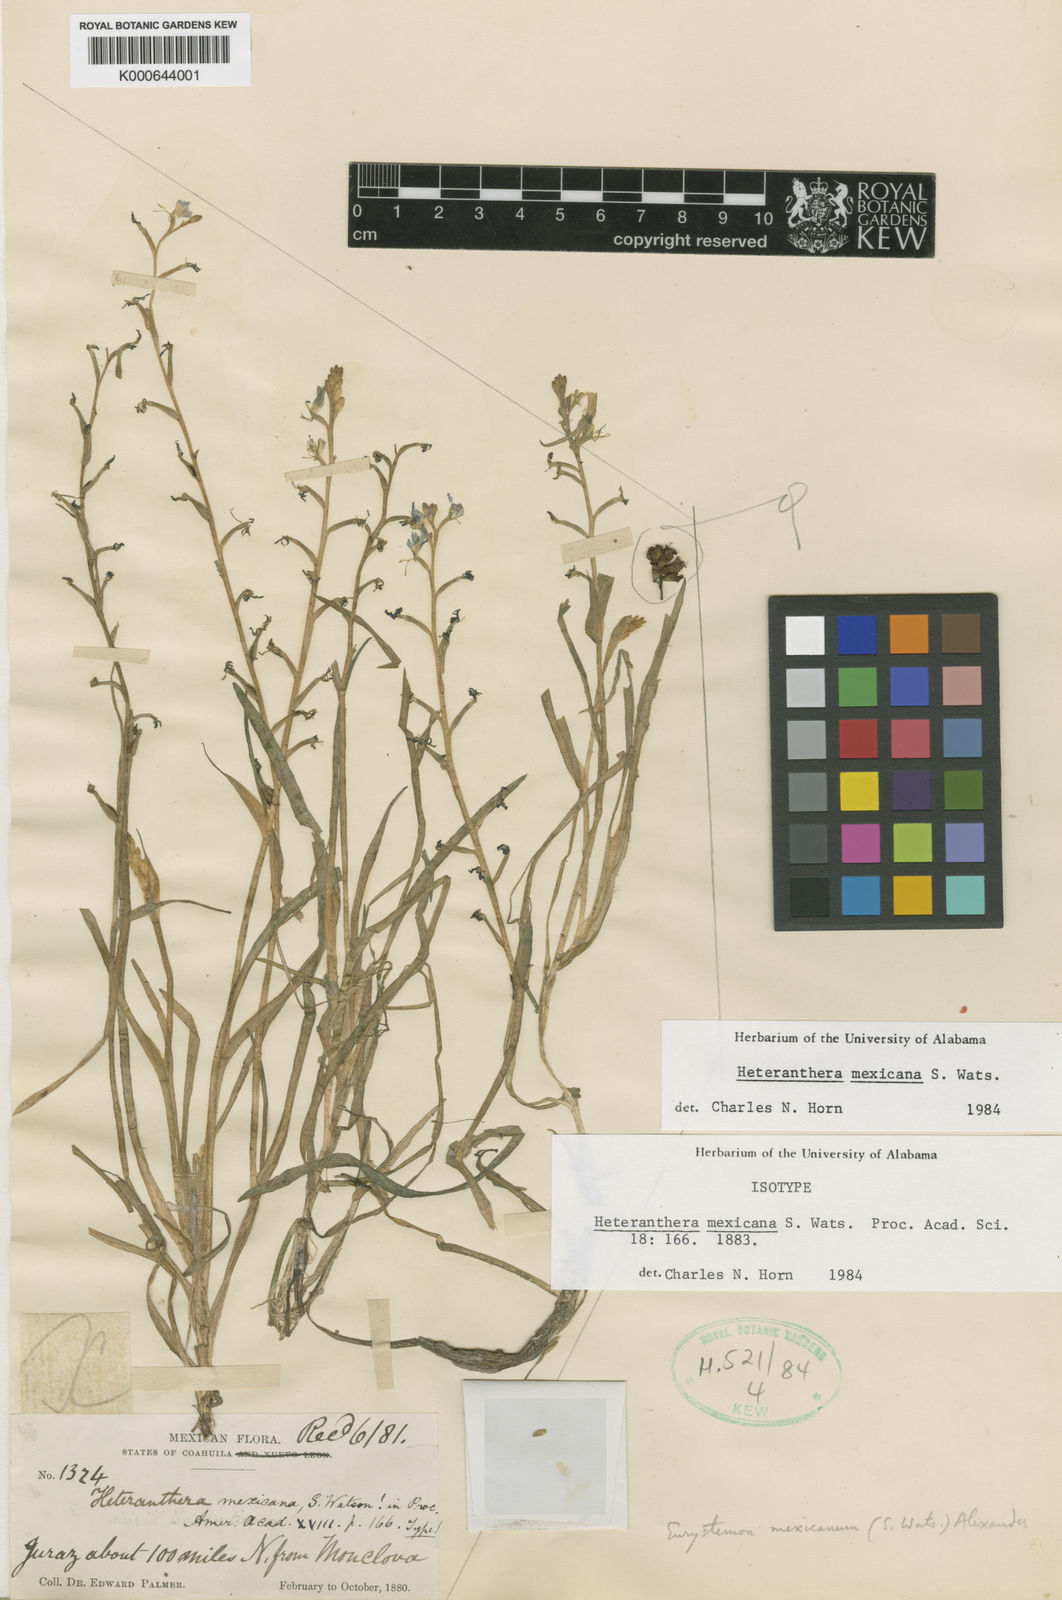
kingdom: Plantae
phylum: Tracheophyta
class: Liliopsida
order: Commelinales
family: Pontederiaceae
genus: Heteranthera
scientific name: Heteranthera mexicana
